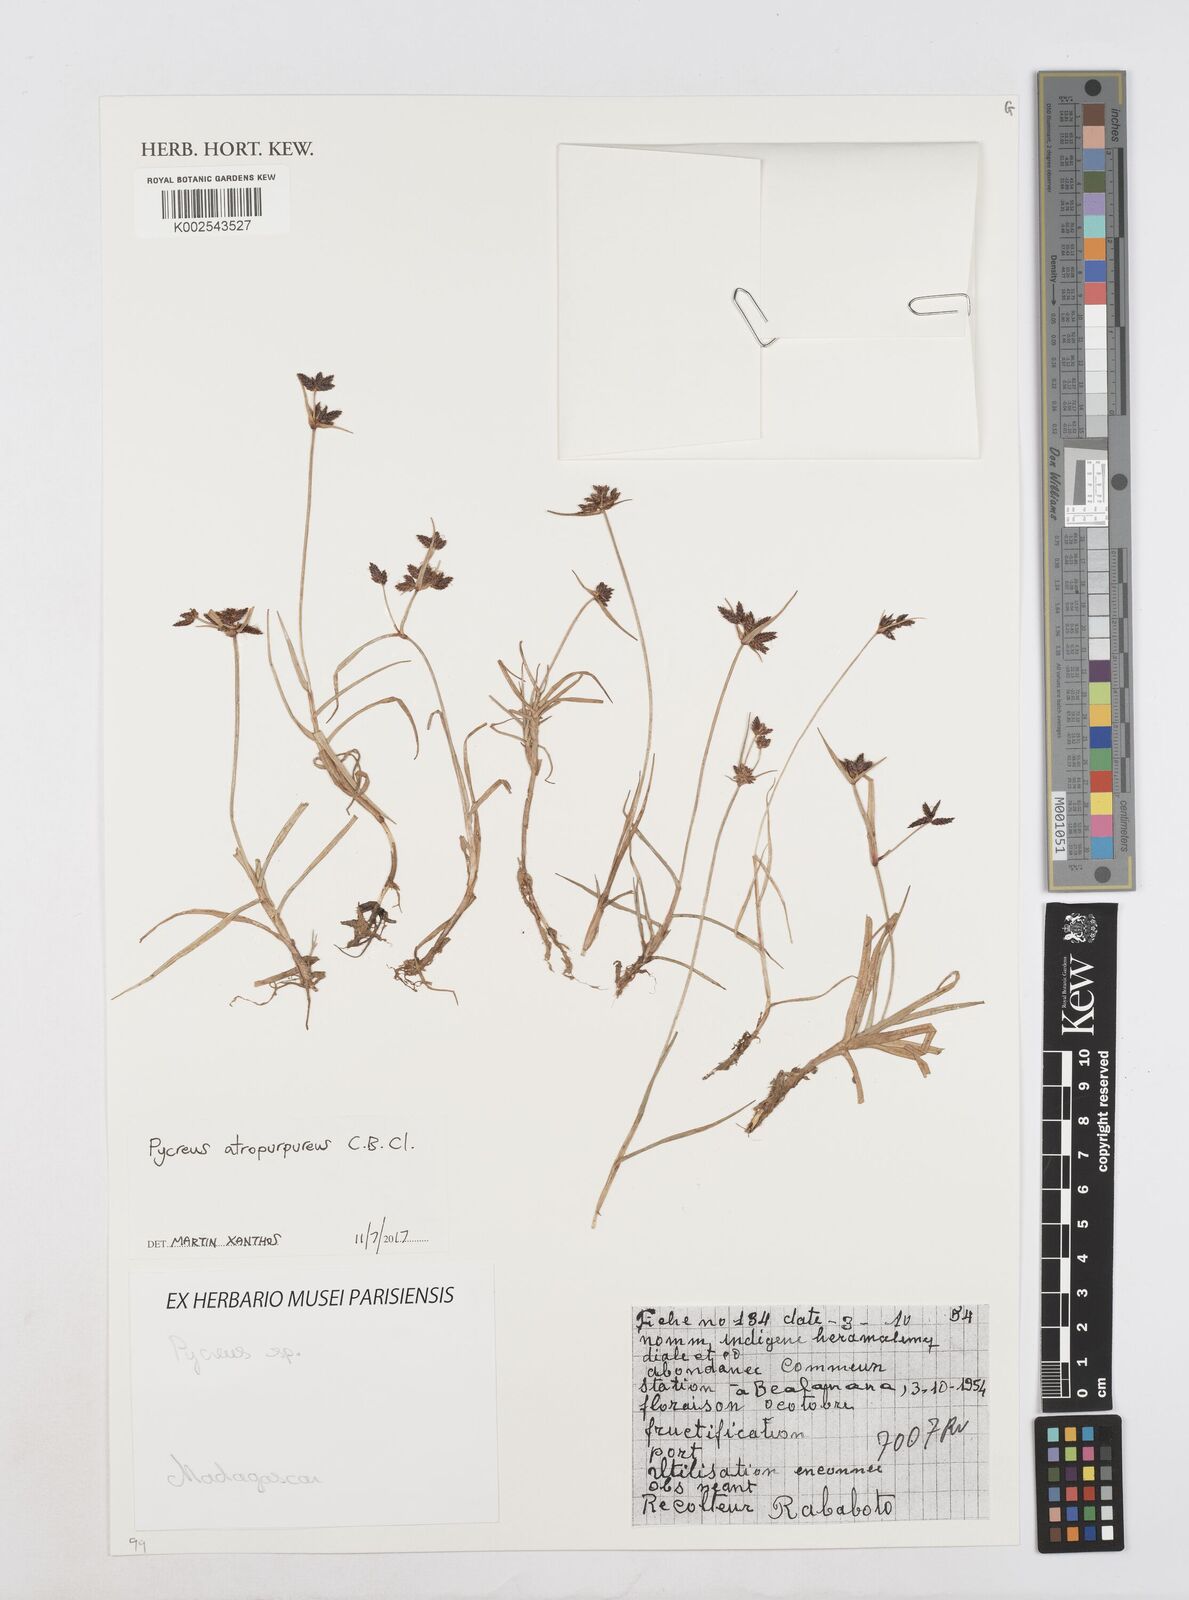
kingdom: Plantae
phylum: Tracheophyta
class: Liliopsida
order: Poales
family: Cyperaceae
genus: Cyperus
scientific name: Cyperus chermezonii
